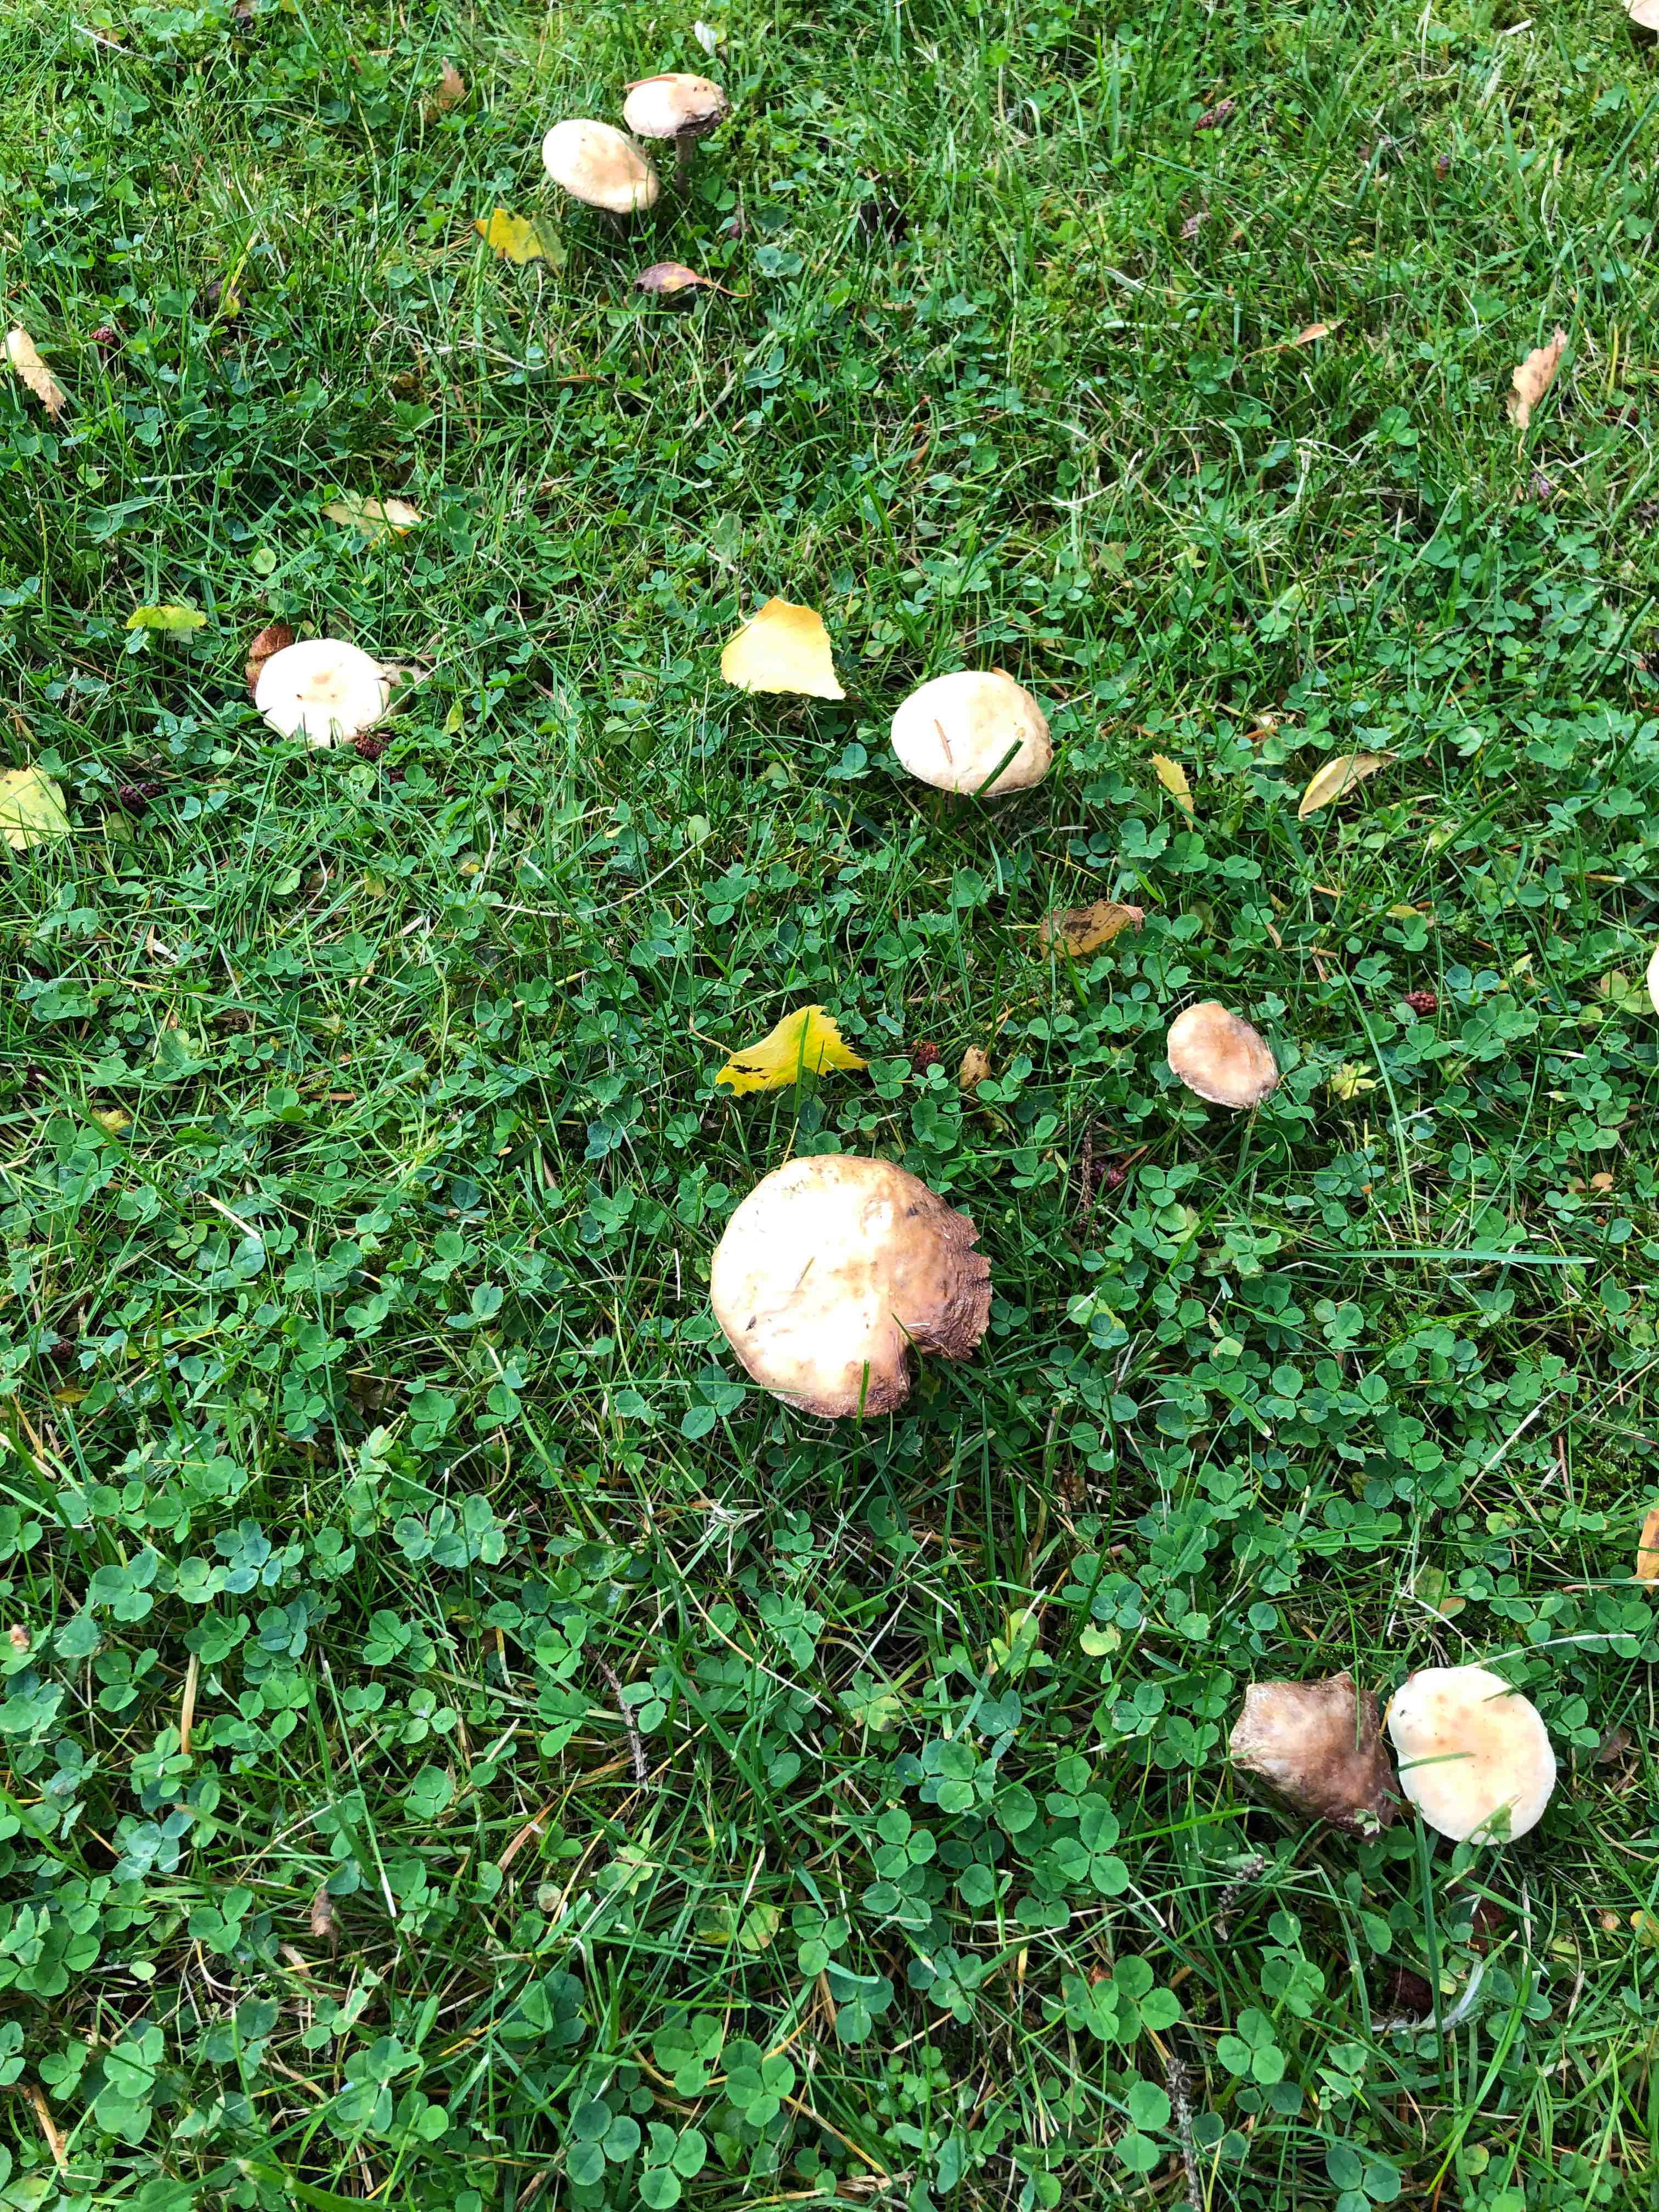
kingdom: Fungi
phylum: Basidiomycota
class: Agaricomycetes
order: Agaricales
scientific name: Agaricales
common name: champignonordenen
